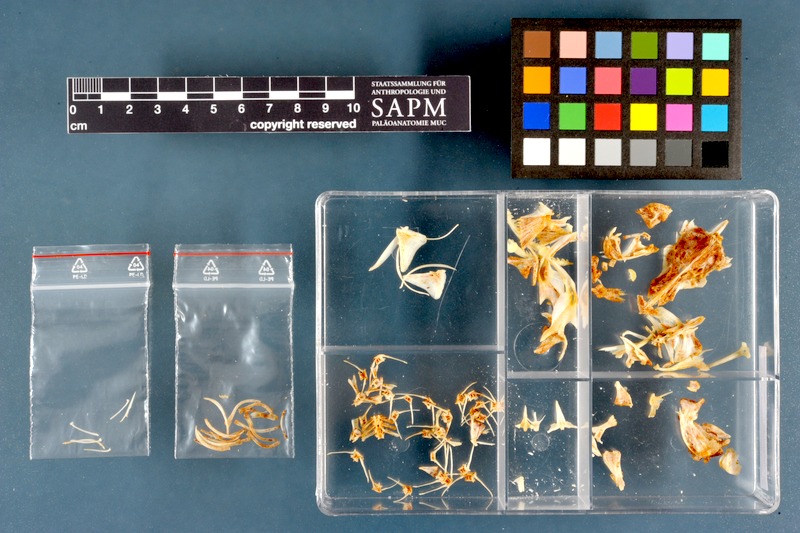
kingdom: Animalia
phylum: Chordata
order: Siluriformes
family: Claroteidae
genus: Chrysichthys
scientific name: Chrysichthys rueppelli
